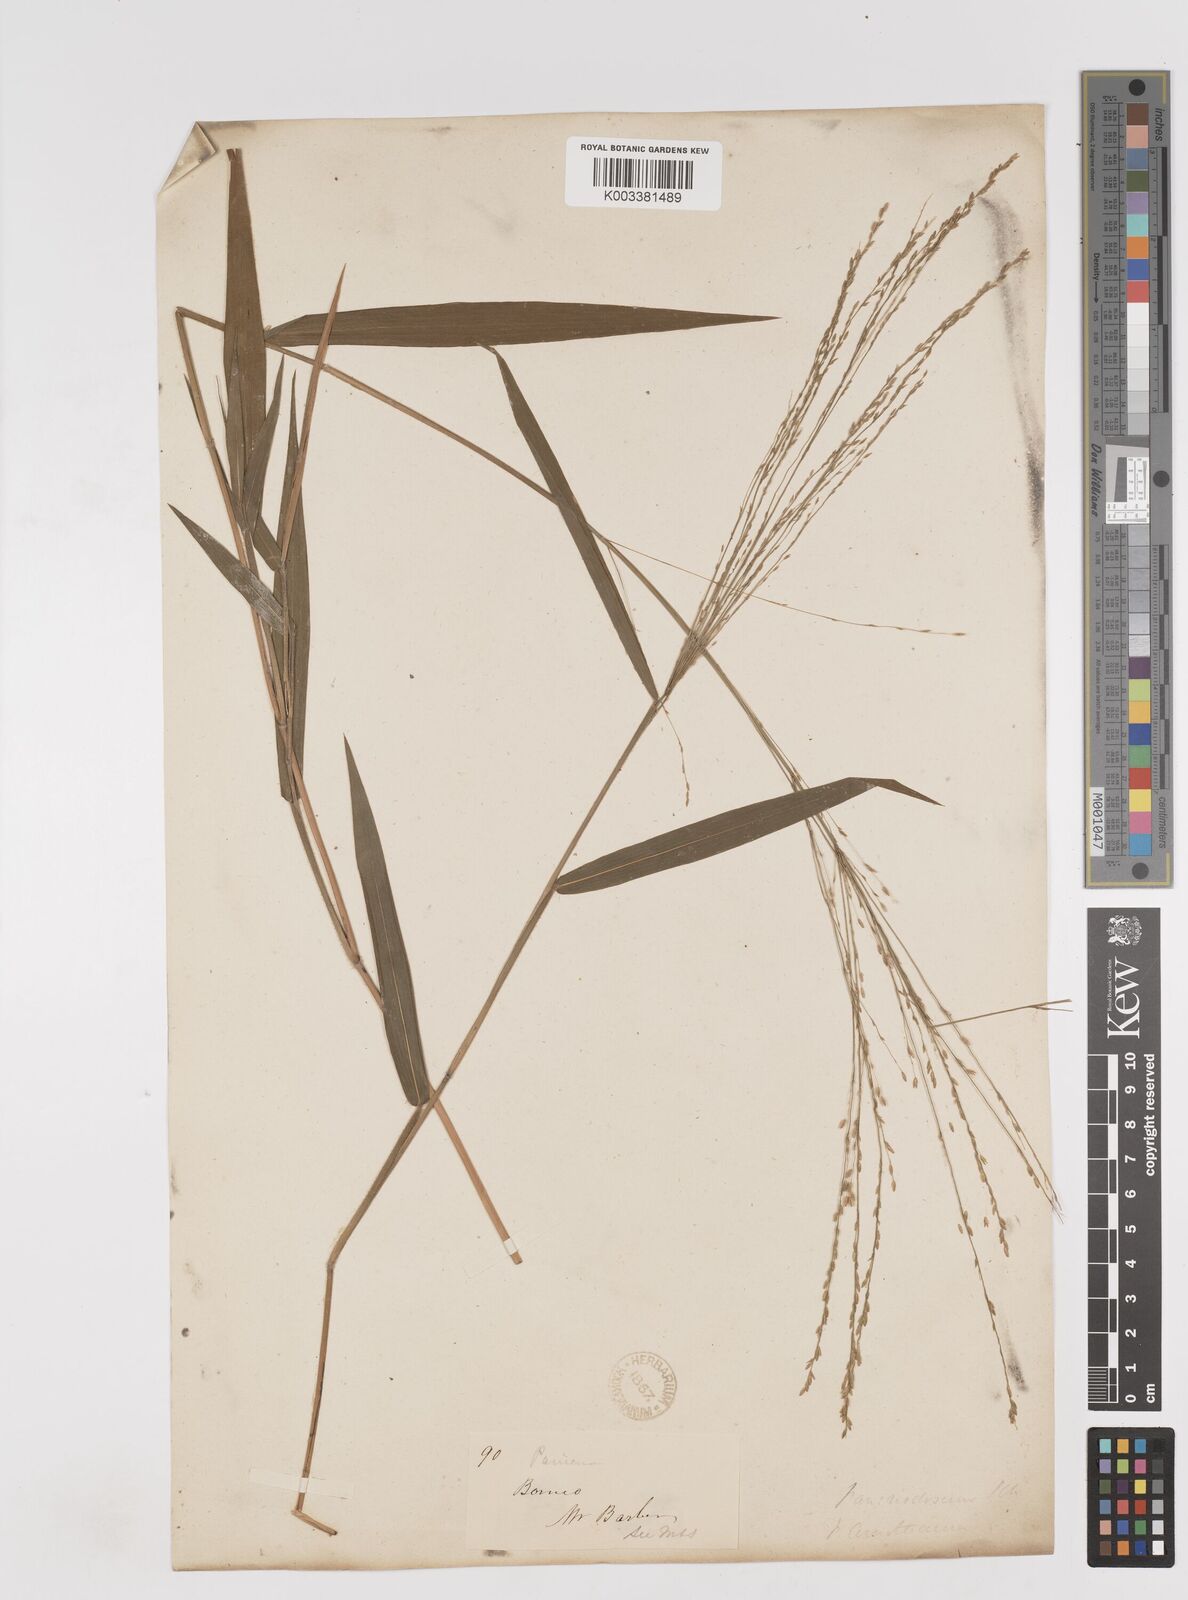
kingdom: Plantae
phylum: Tracheophyta
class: Liliopsida
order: Poales
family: Poaceae
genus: Ottochloa
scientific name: Ottochloa nodosa
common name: Slender-panic grass
